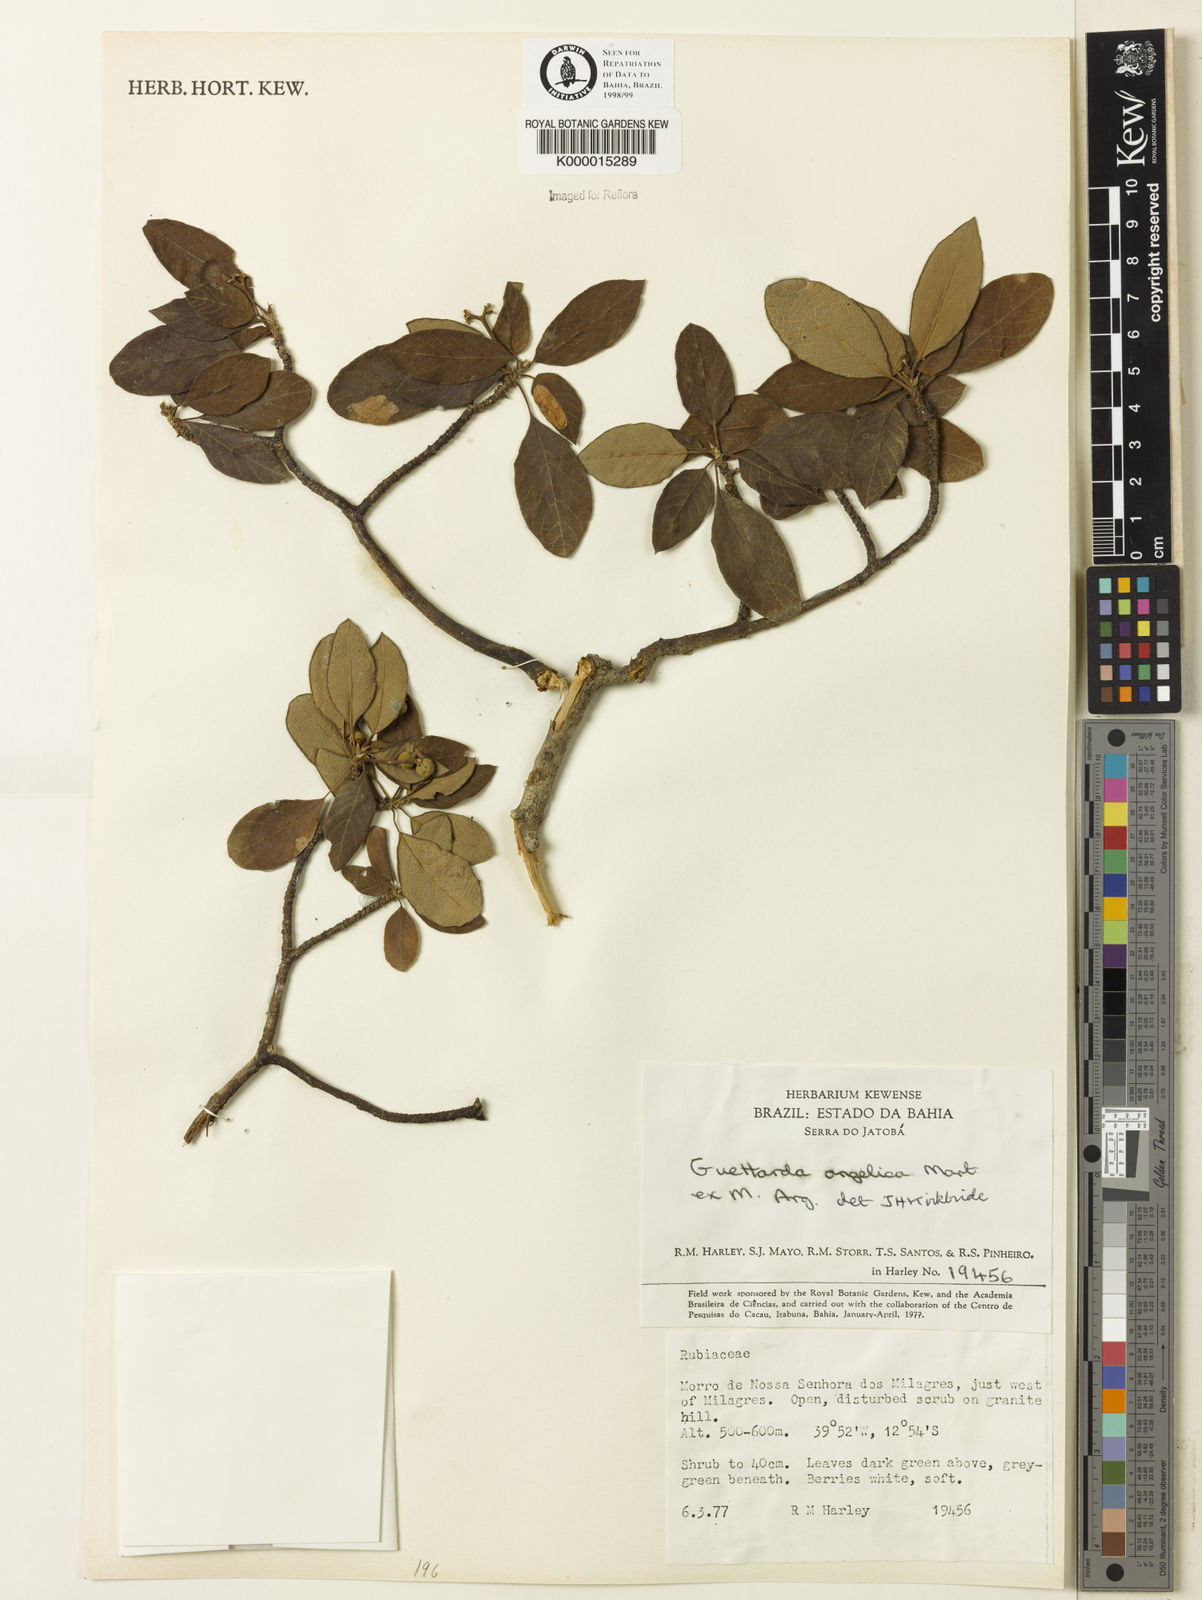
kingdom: Plantae
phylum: Tracheophyta
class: Magnoliopsida
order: Gentianales
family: Rubiaceae
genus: Guettarda
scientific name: Guettarda angelica
